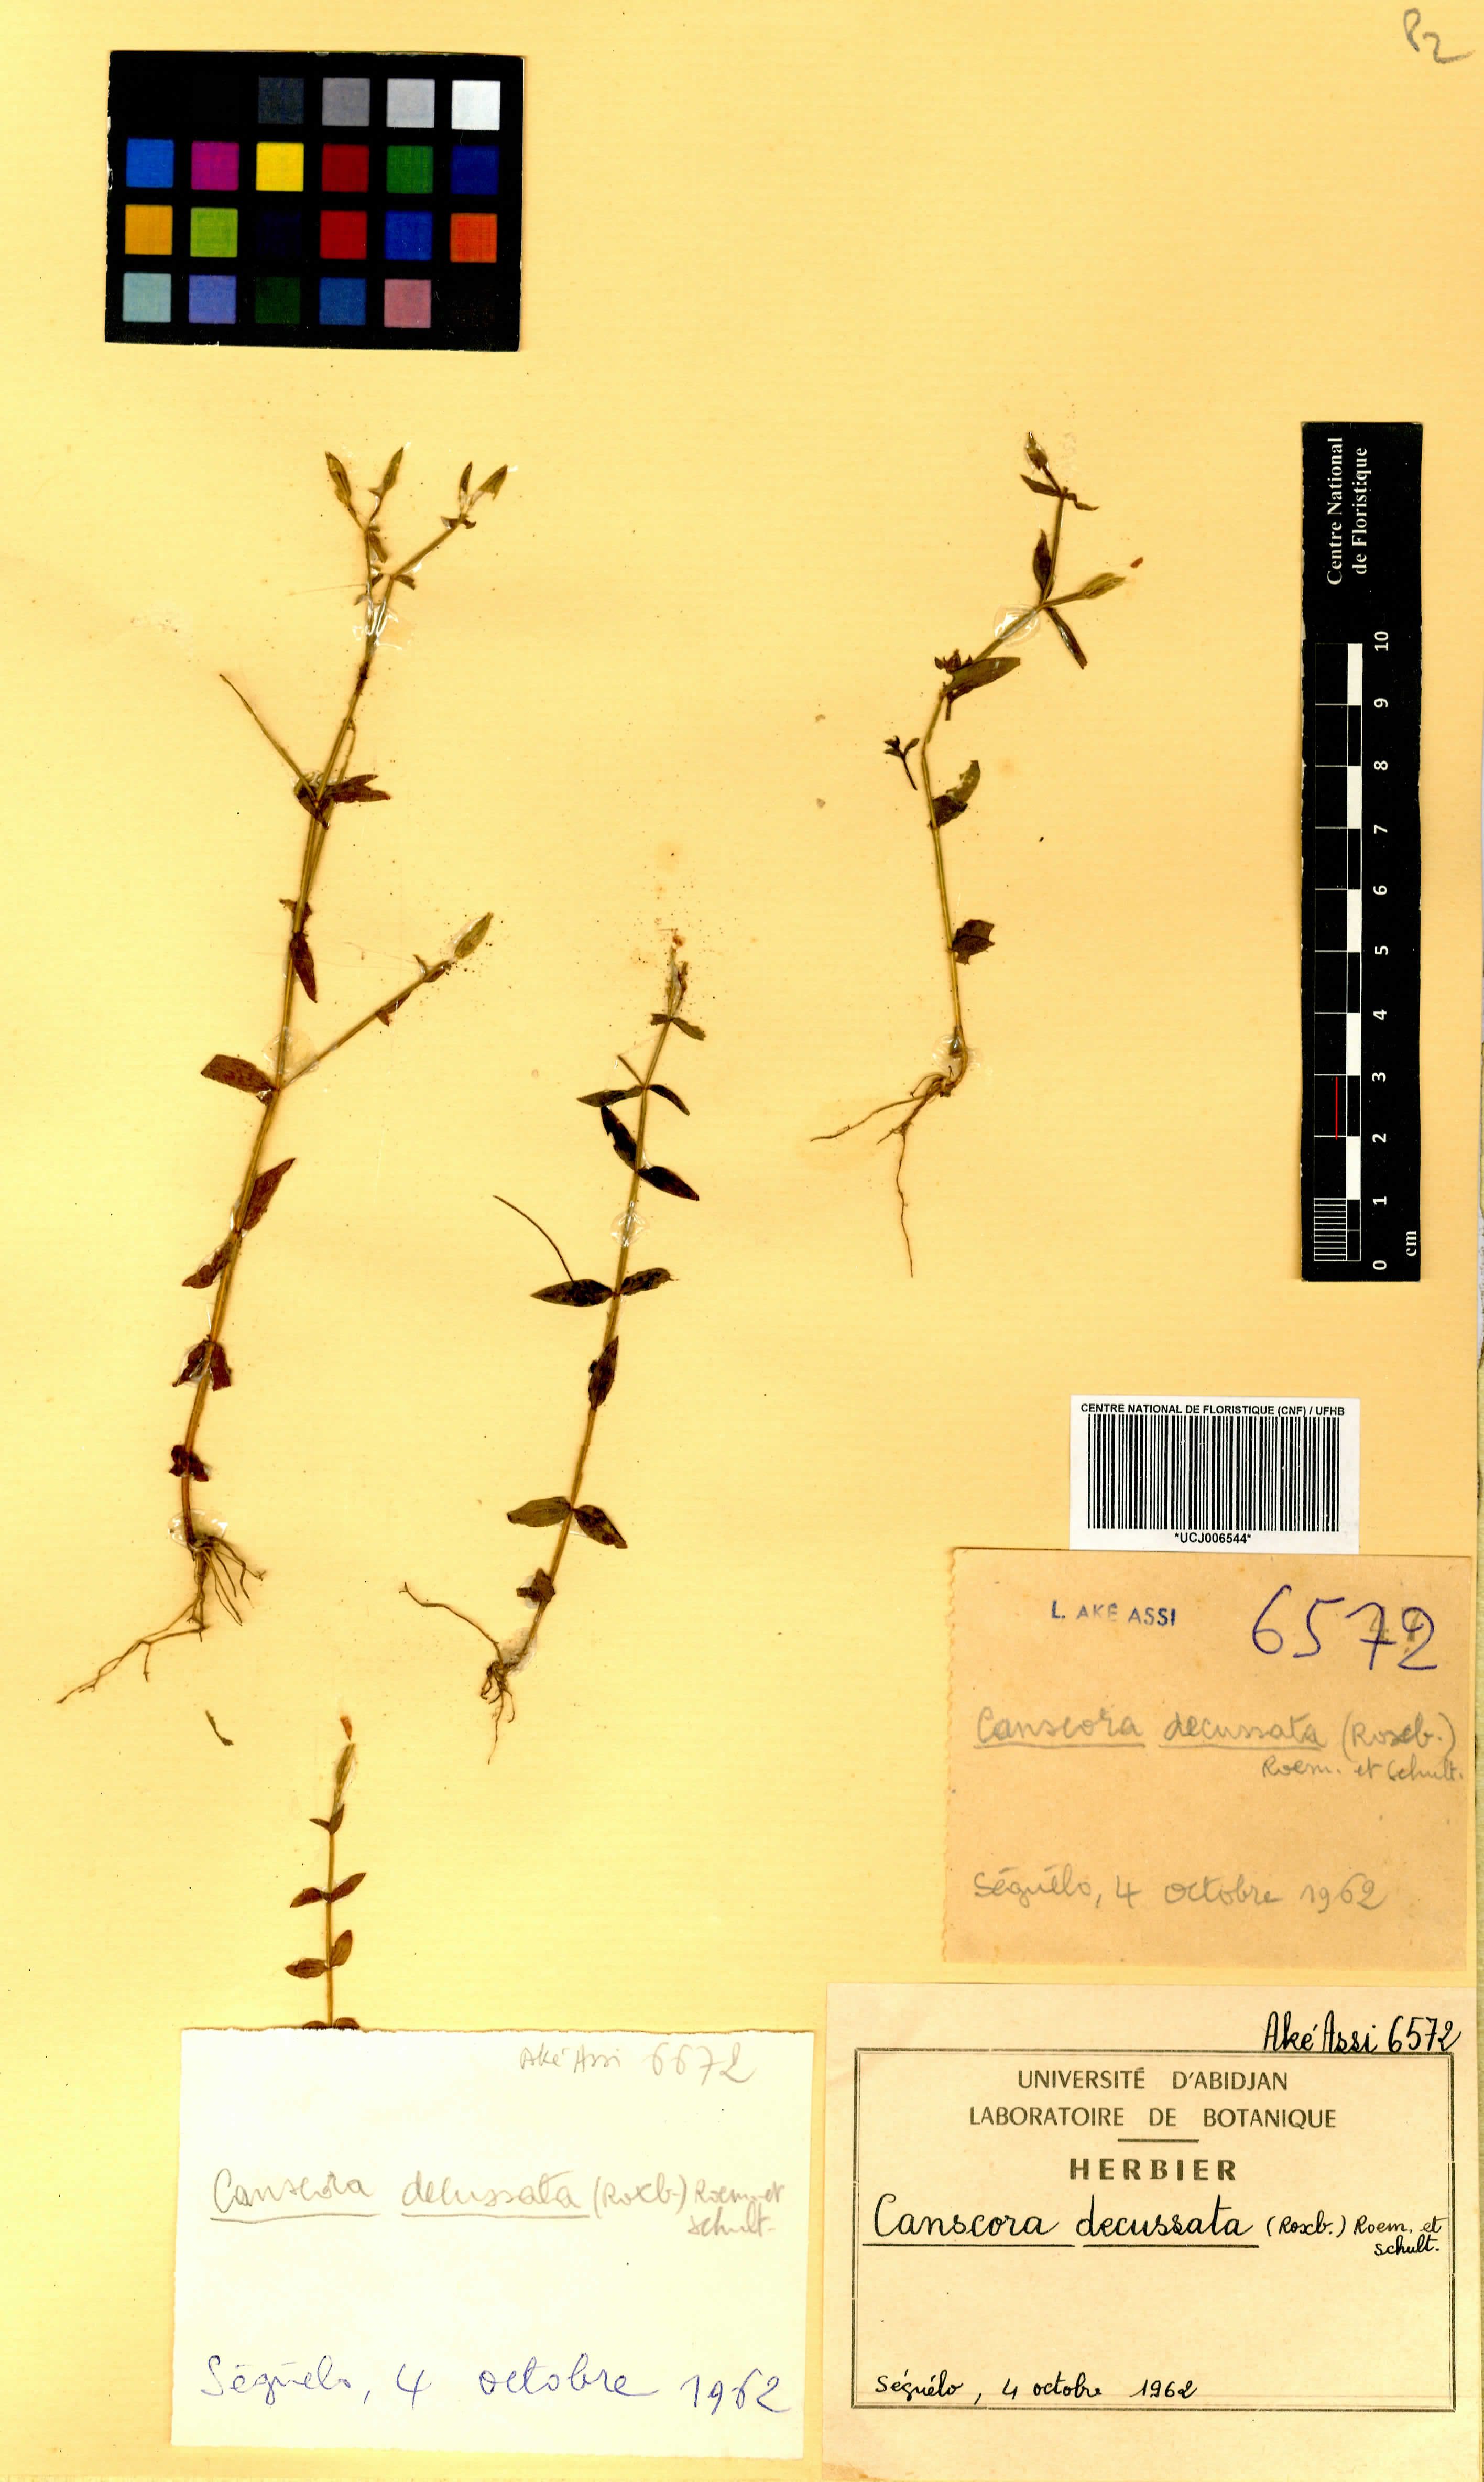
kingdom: Plantae
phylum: Tracheophyta
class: Magnoliopsida
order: Gentianales
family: Gentianaceae
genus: Canscora
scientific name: Canscora alata
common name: Canscora
